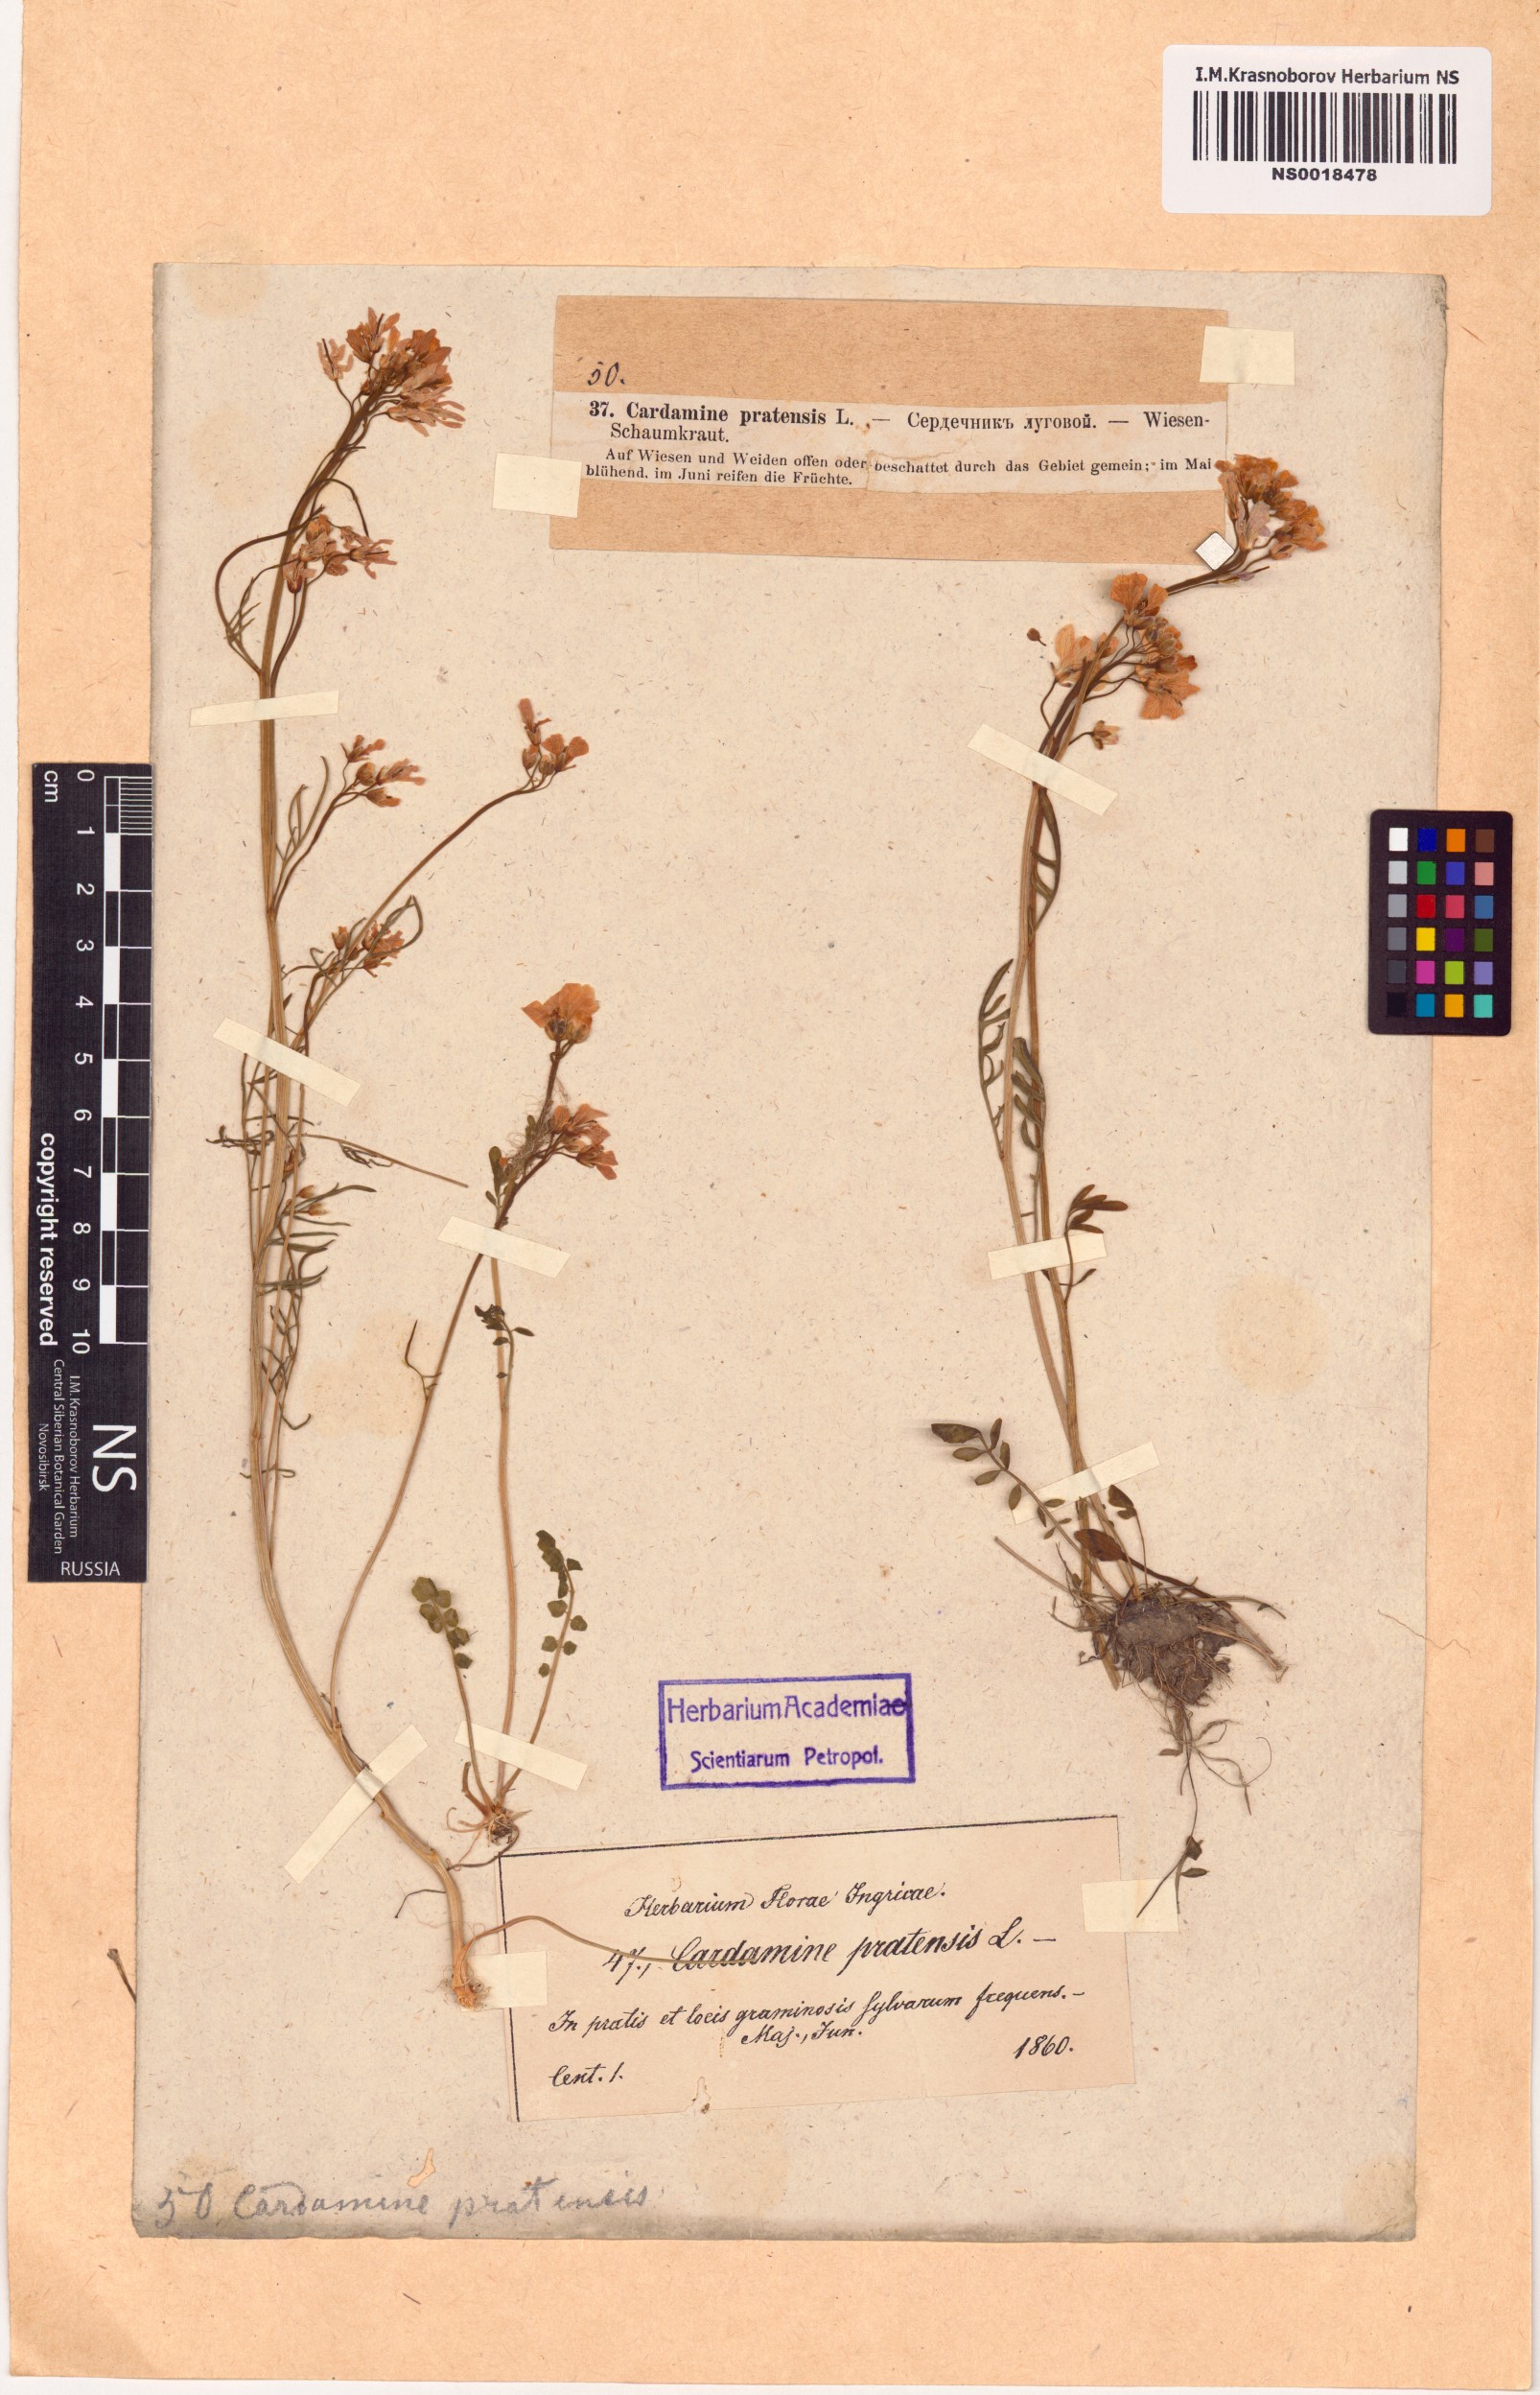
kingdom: Plantae
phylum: Tracheophyta
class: Magnoliopsida
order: Brassicales
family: Brassicaceae
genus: Cardamine
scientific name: Cardamine pratensis
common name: Cuckoo flower
